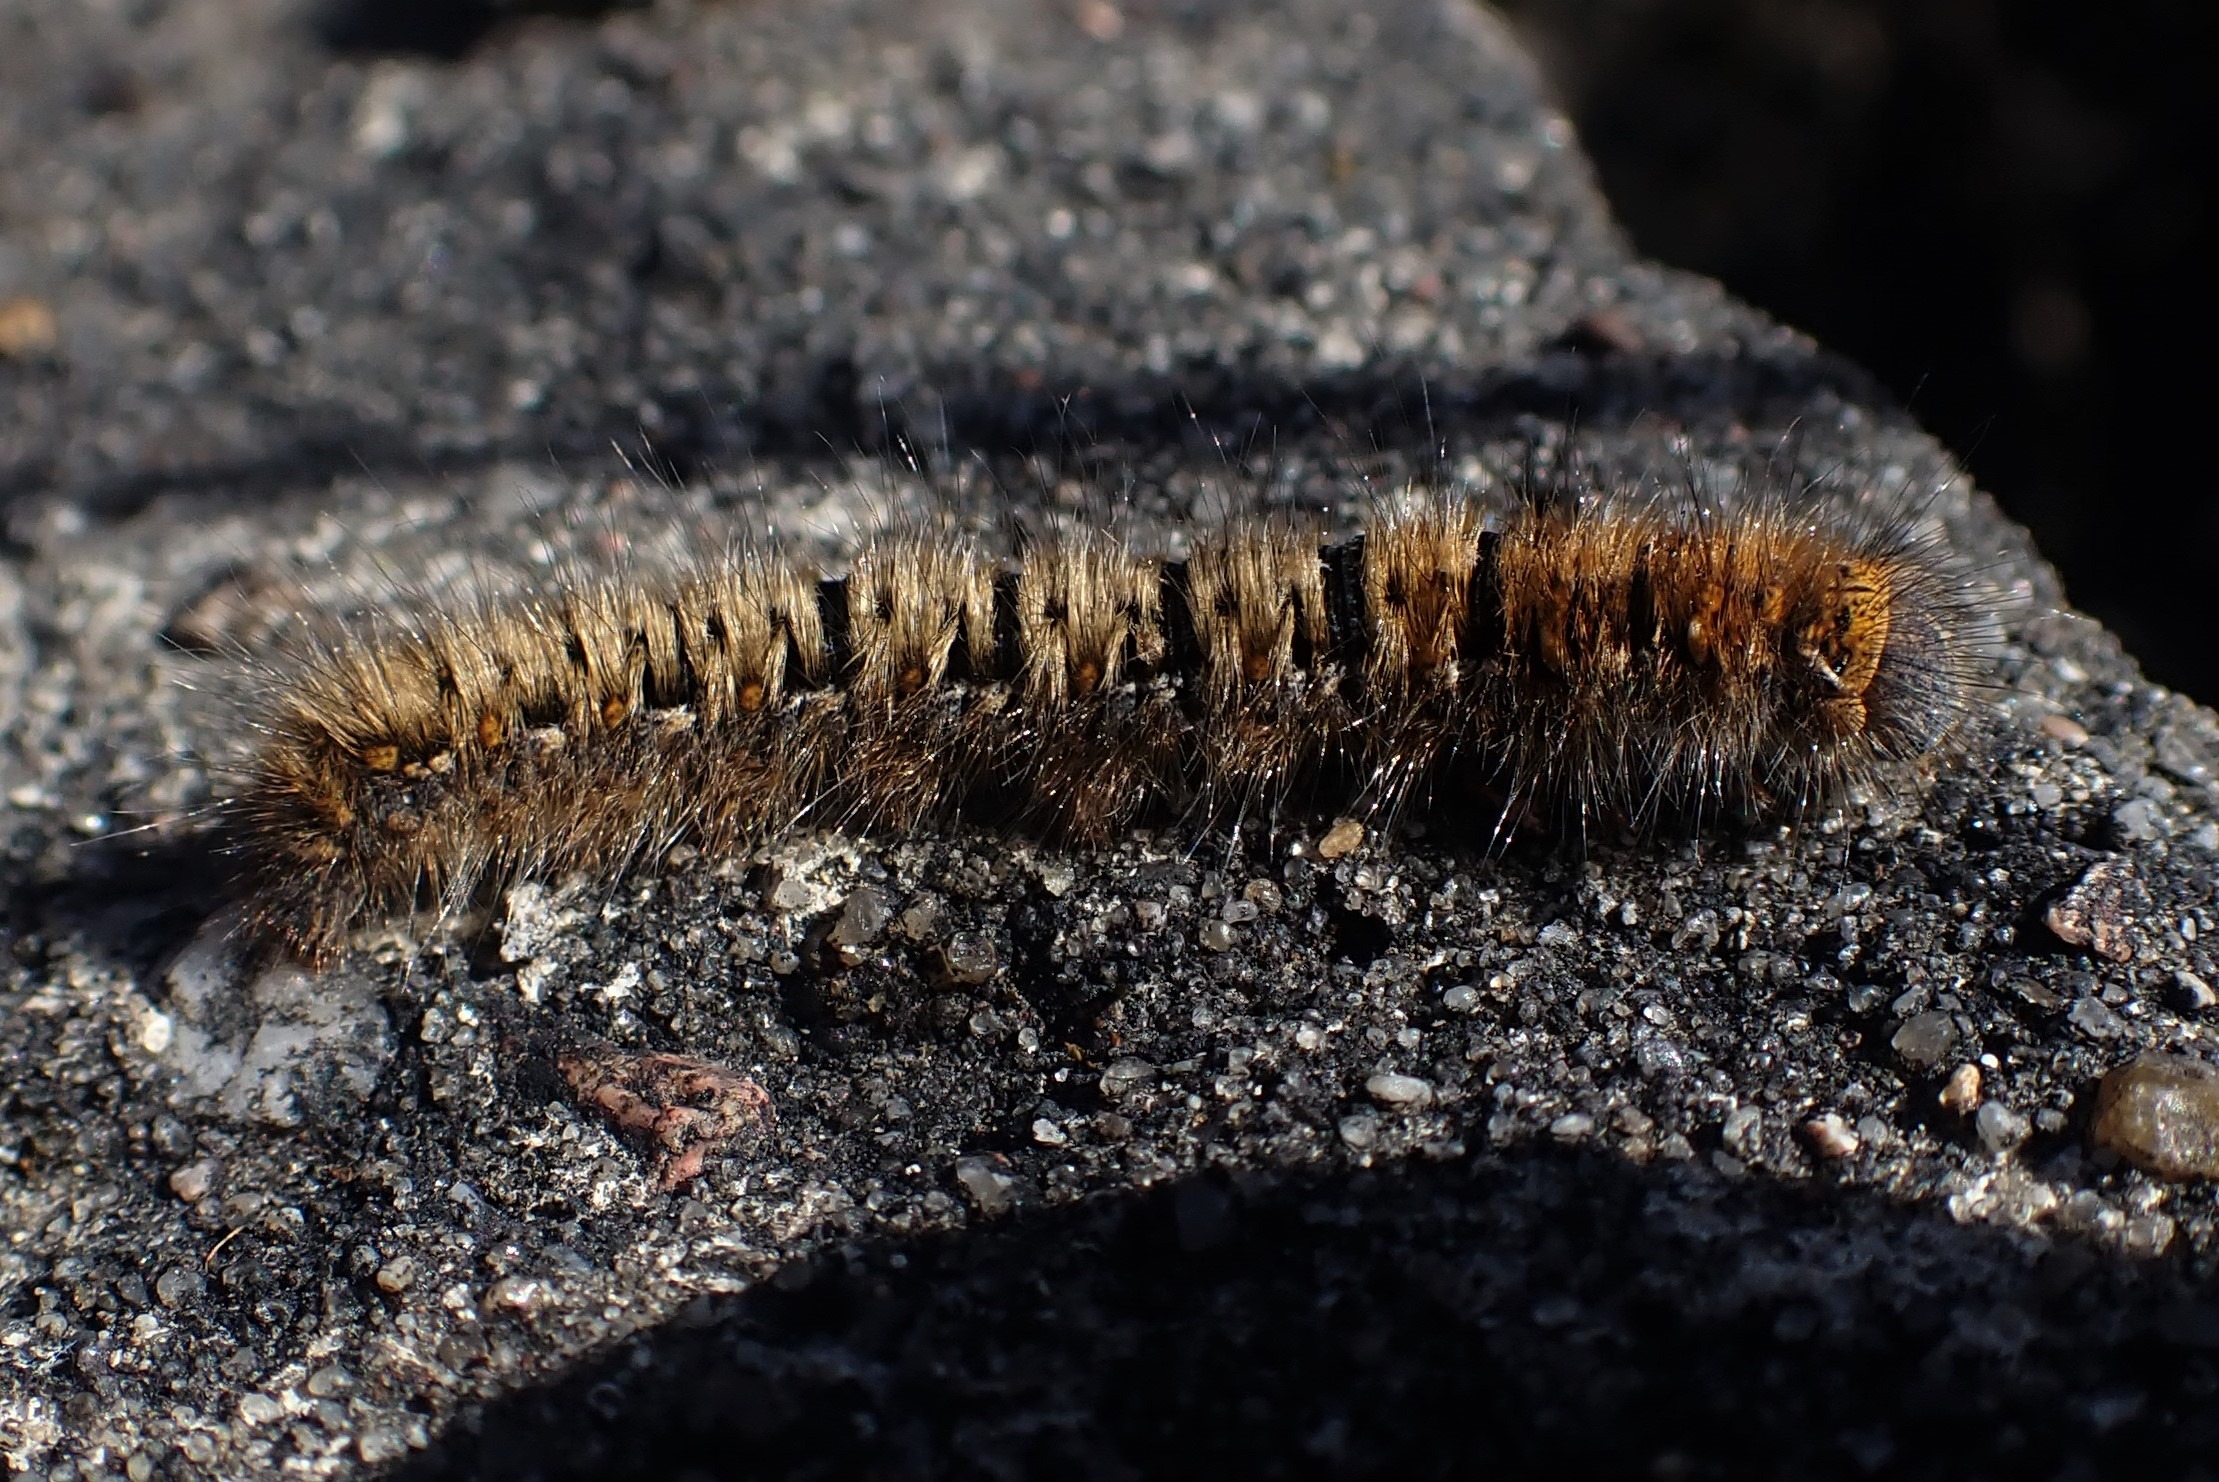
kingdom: Animalia
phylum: Arthropoda
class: Insecta
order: Lepidoptera
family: Lasiocampidae
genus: Lasiocampa
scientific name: Lasiocampa quercus
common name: Egespinder
